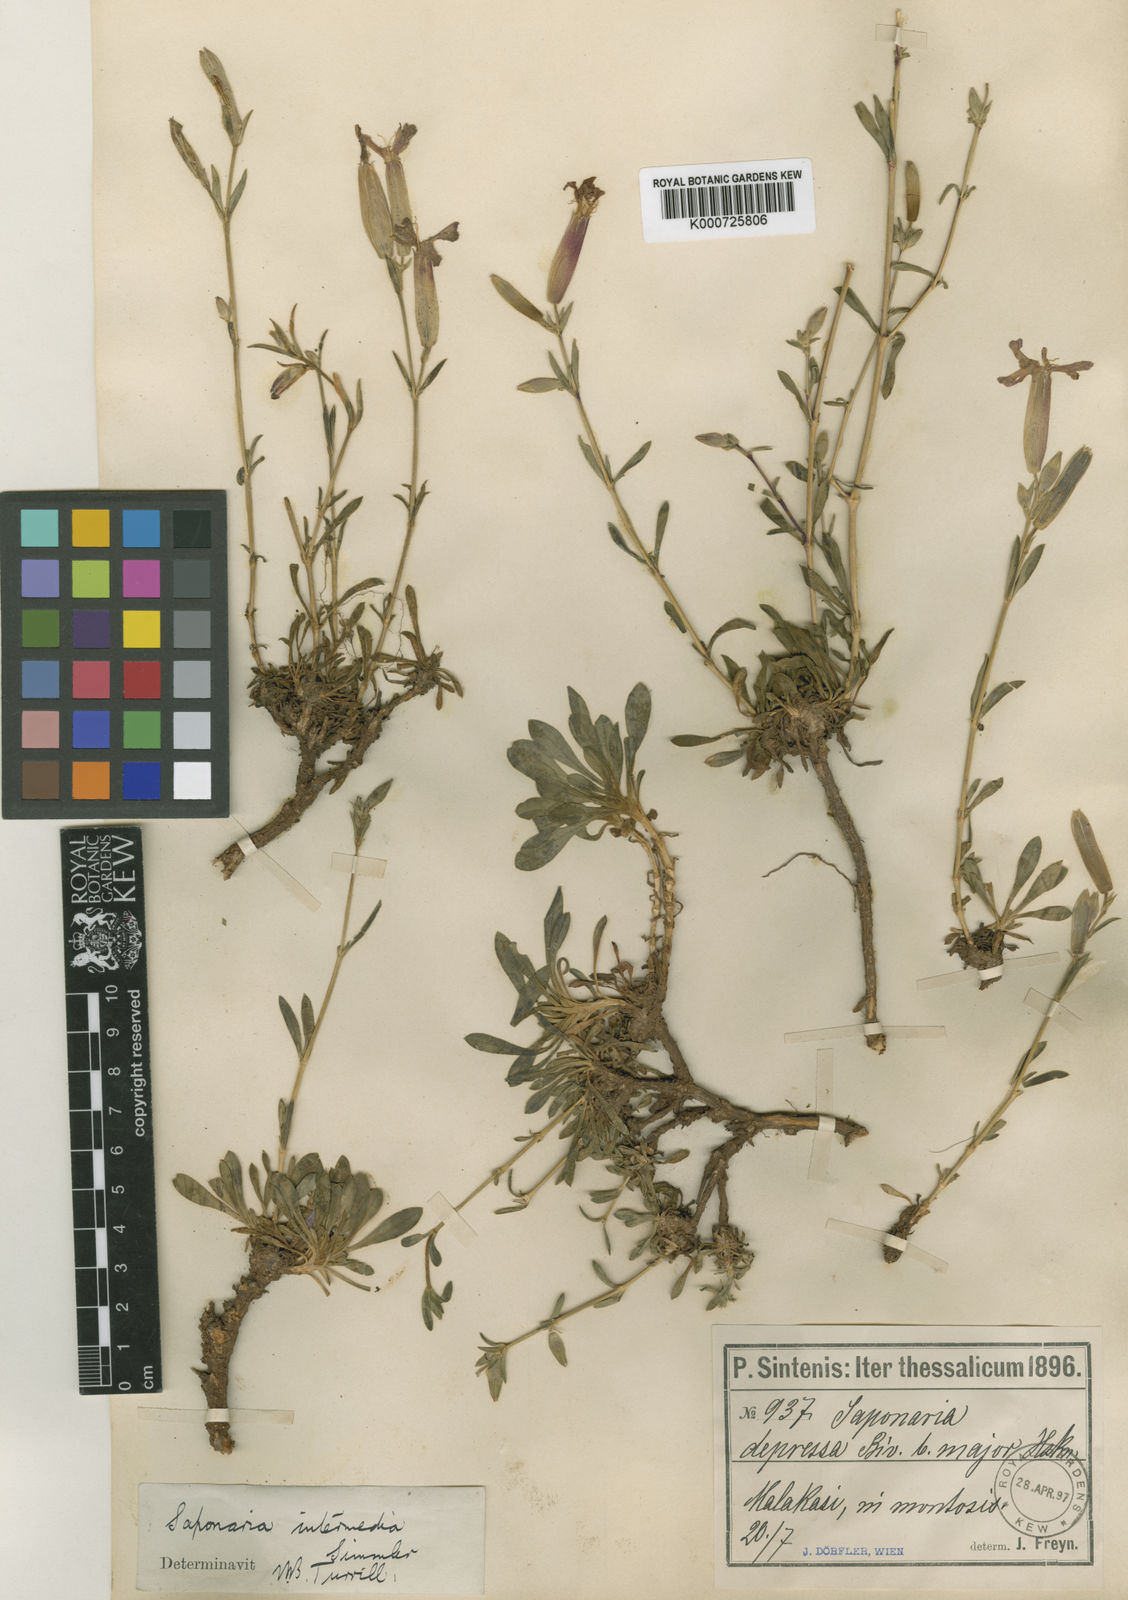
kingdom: Plantae
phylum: Tracheophyta
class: Magnoliopsida
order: Caryophyllales
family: Caryophyllaceae
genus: Saponaria
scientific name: Saponaria sicula
